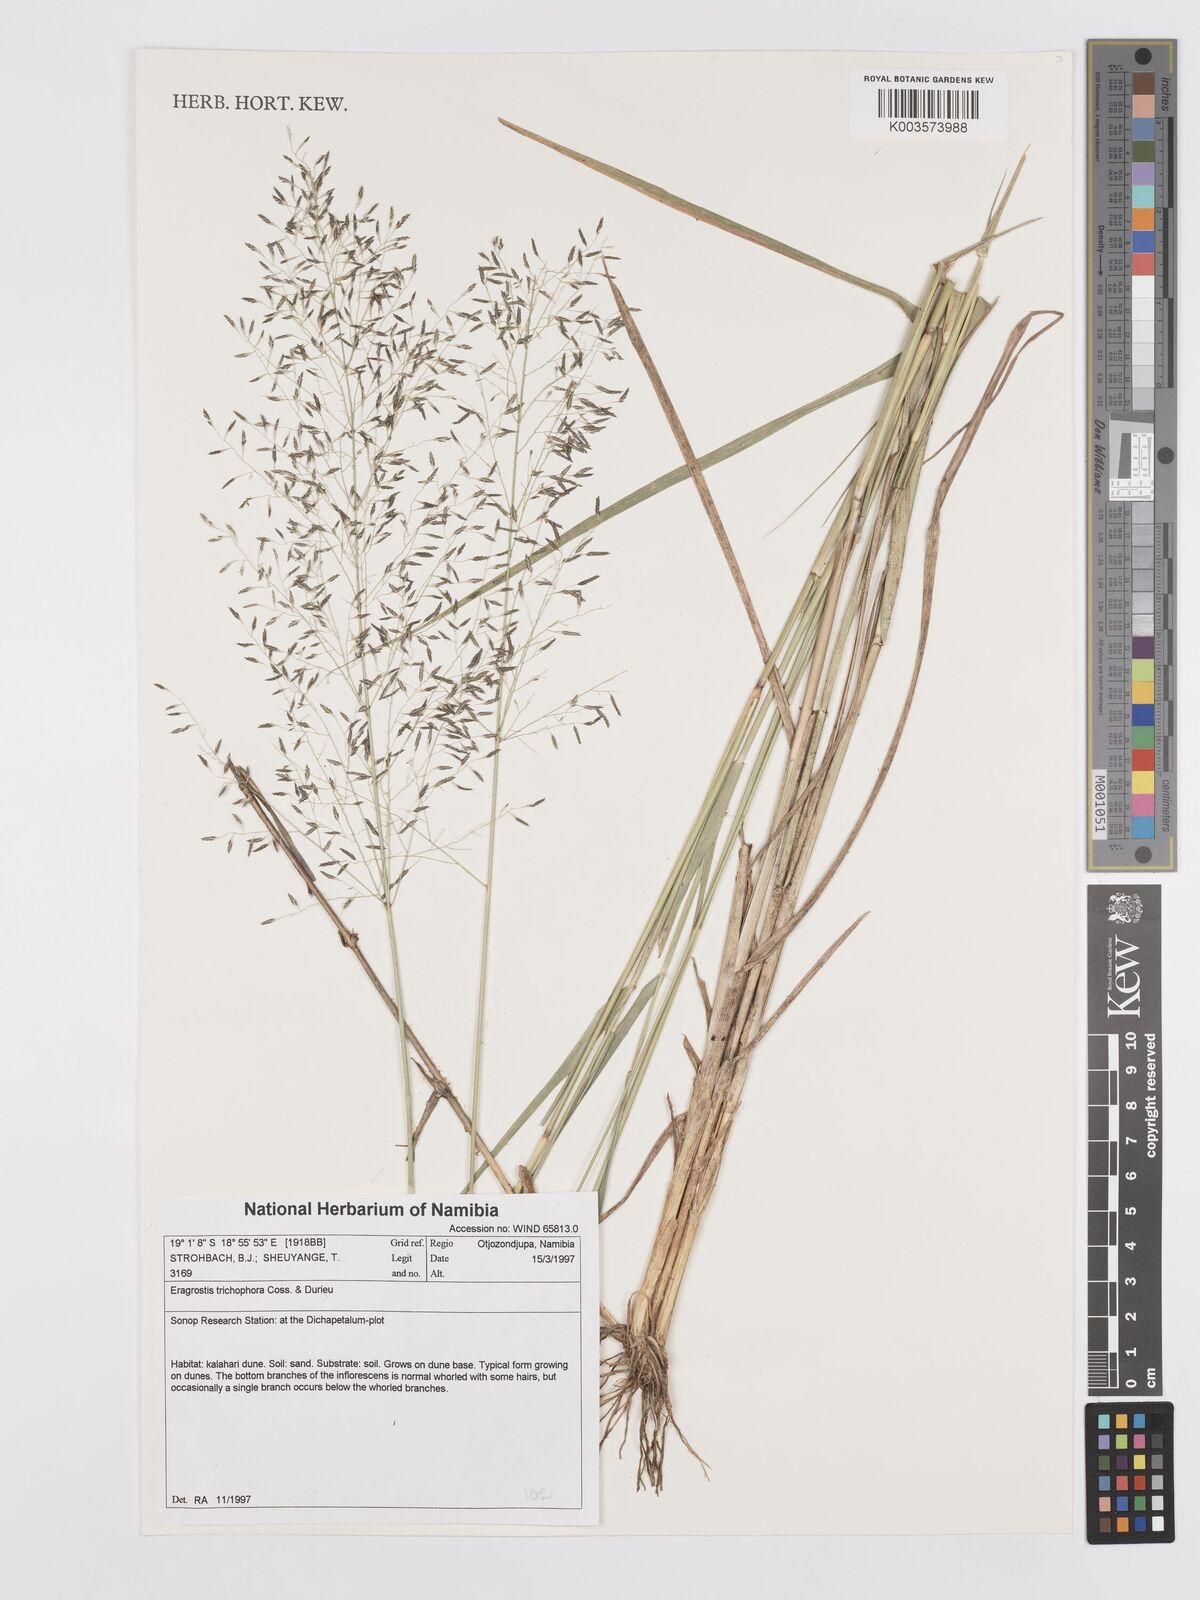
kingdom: Plantae
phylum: Tracheophyta
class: Liliopsida
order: Poales
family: Poaceae
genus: Eragrostis
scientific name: Eragrostis cylindriflora
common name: Cylinderflower lovegrass
